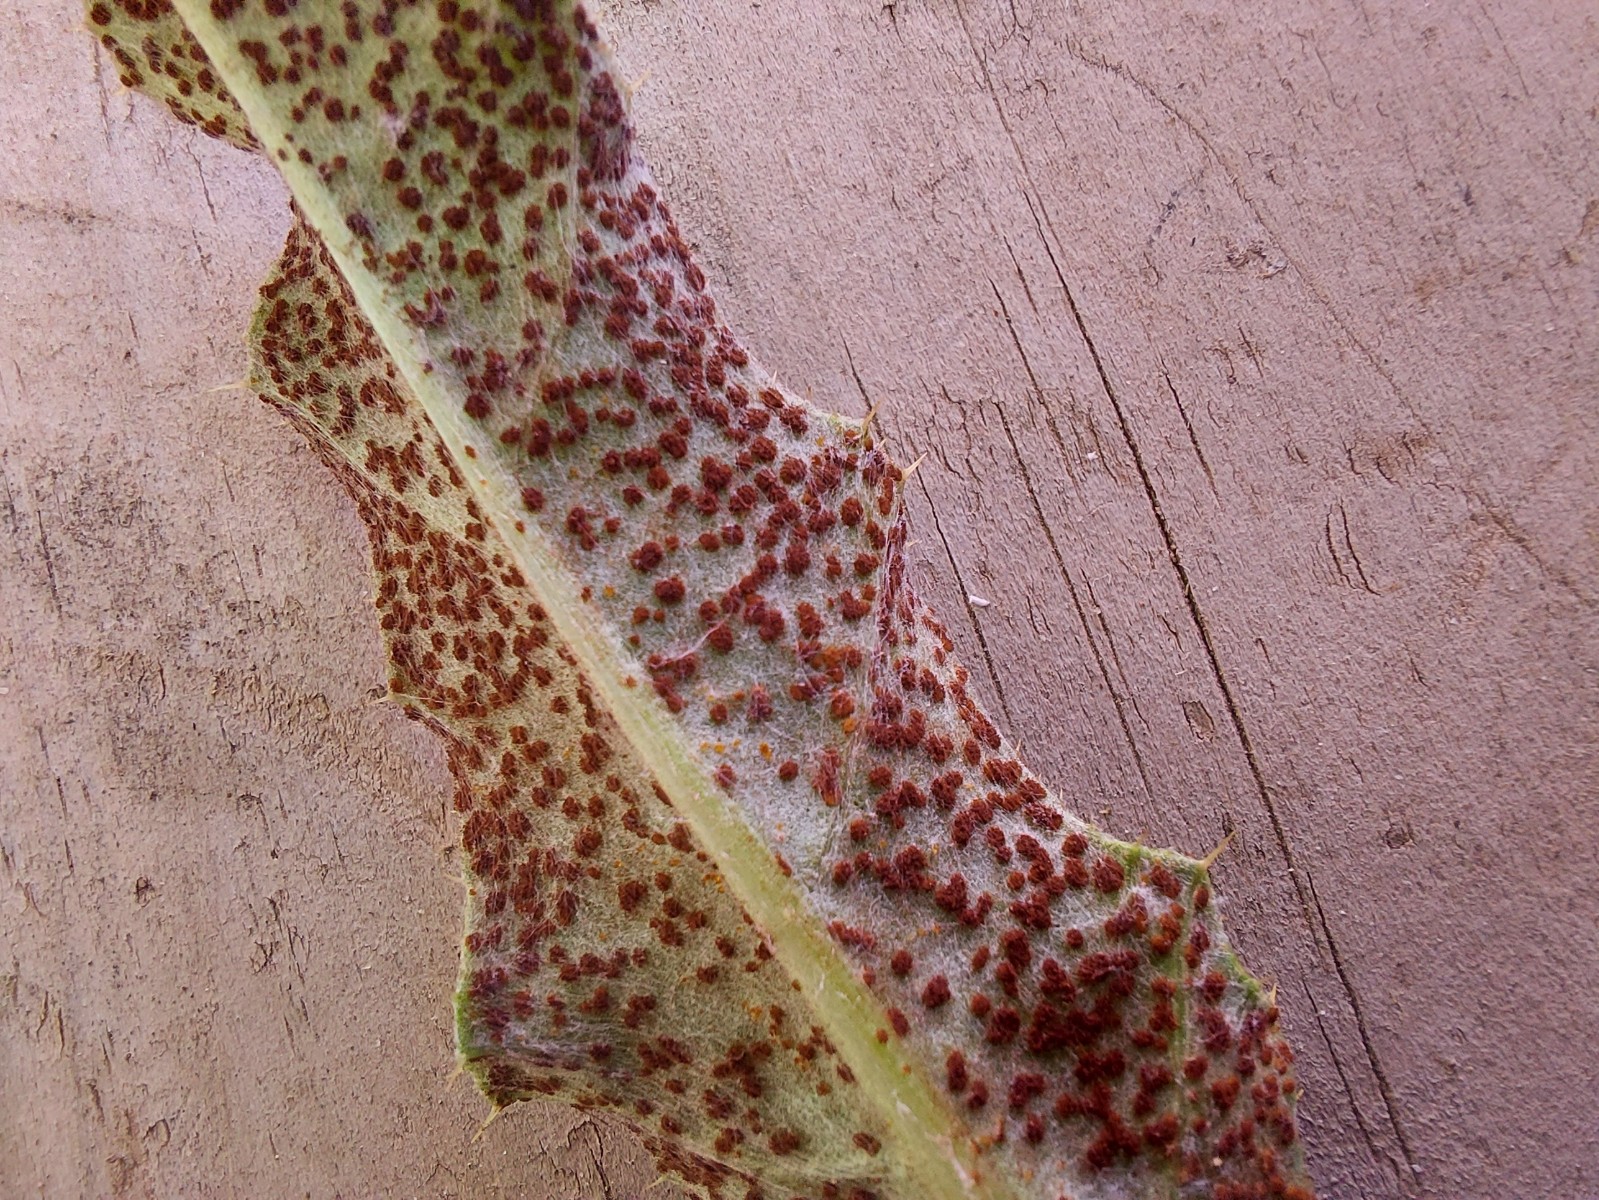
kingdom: Fungi
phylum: Basidiomycota
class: Pucciniomycetes
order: Pucciniales
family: Pucciniaceae
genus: Puccinia
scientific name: Puccinia suaveolens
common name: tidsel-tvecellerust
